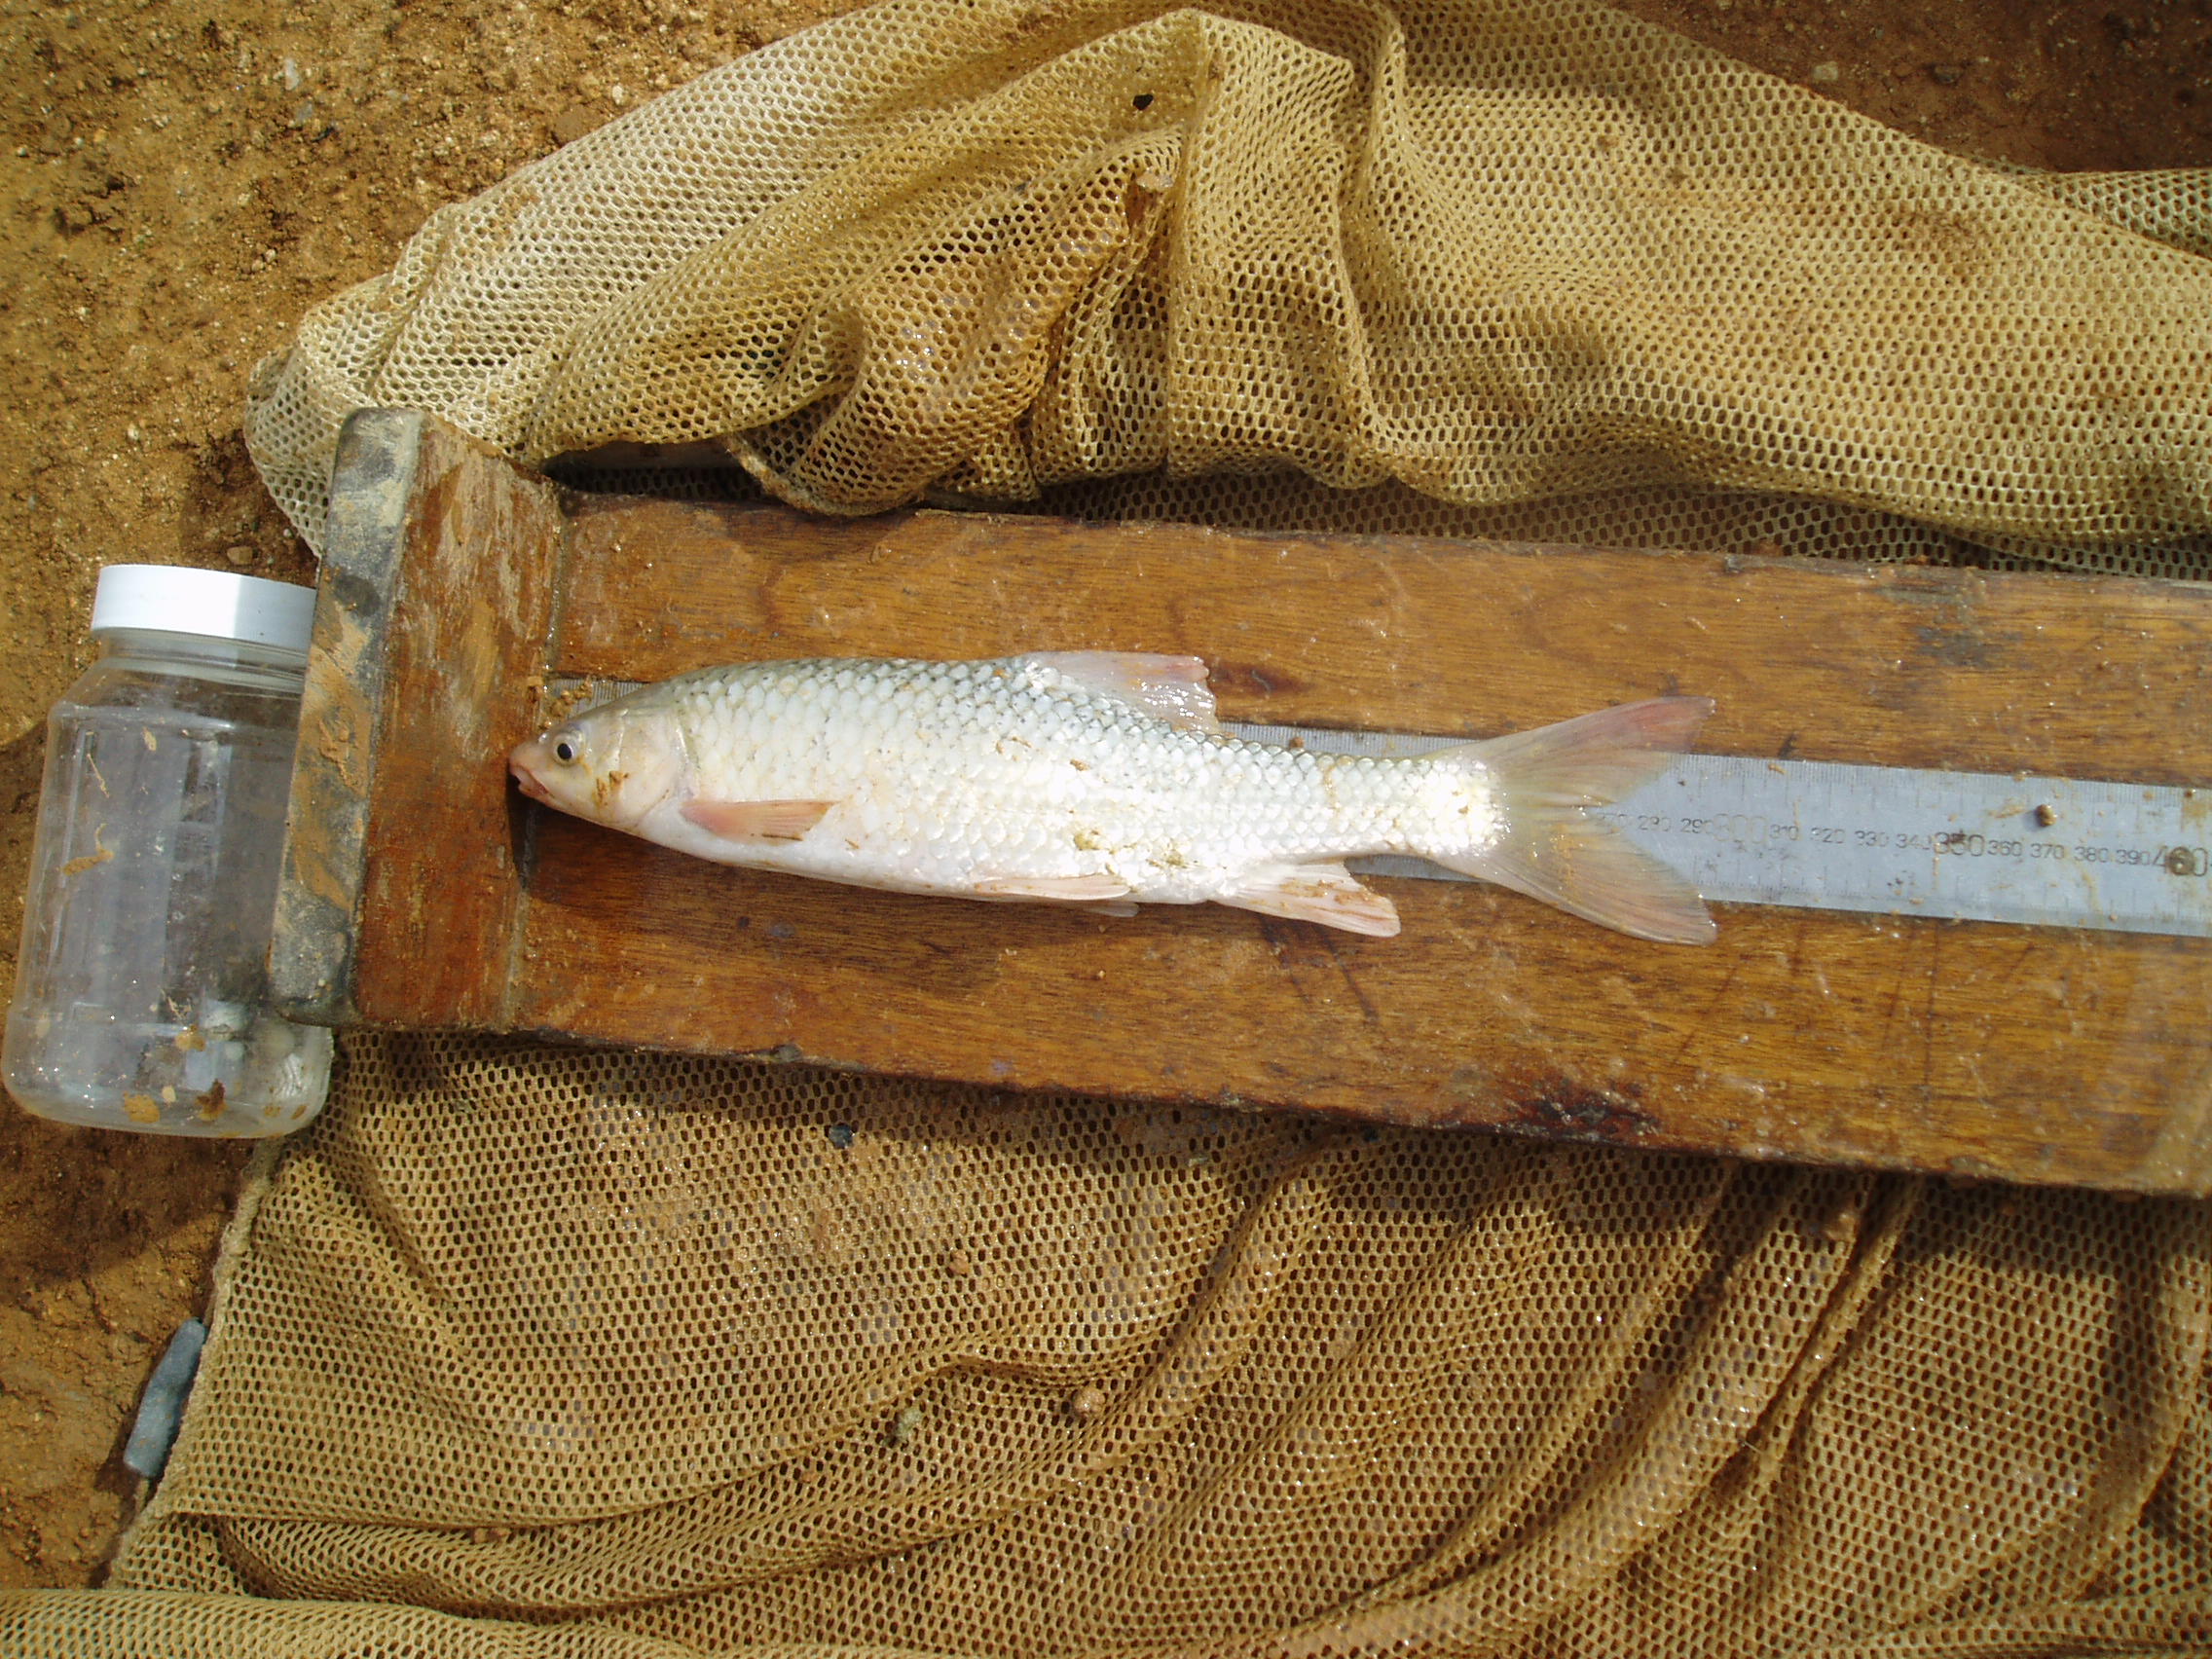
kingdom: Animalia
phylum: Chordata
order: Cypriniformes
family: Cyprinidae
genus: Labeo
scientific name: Labeo
